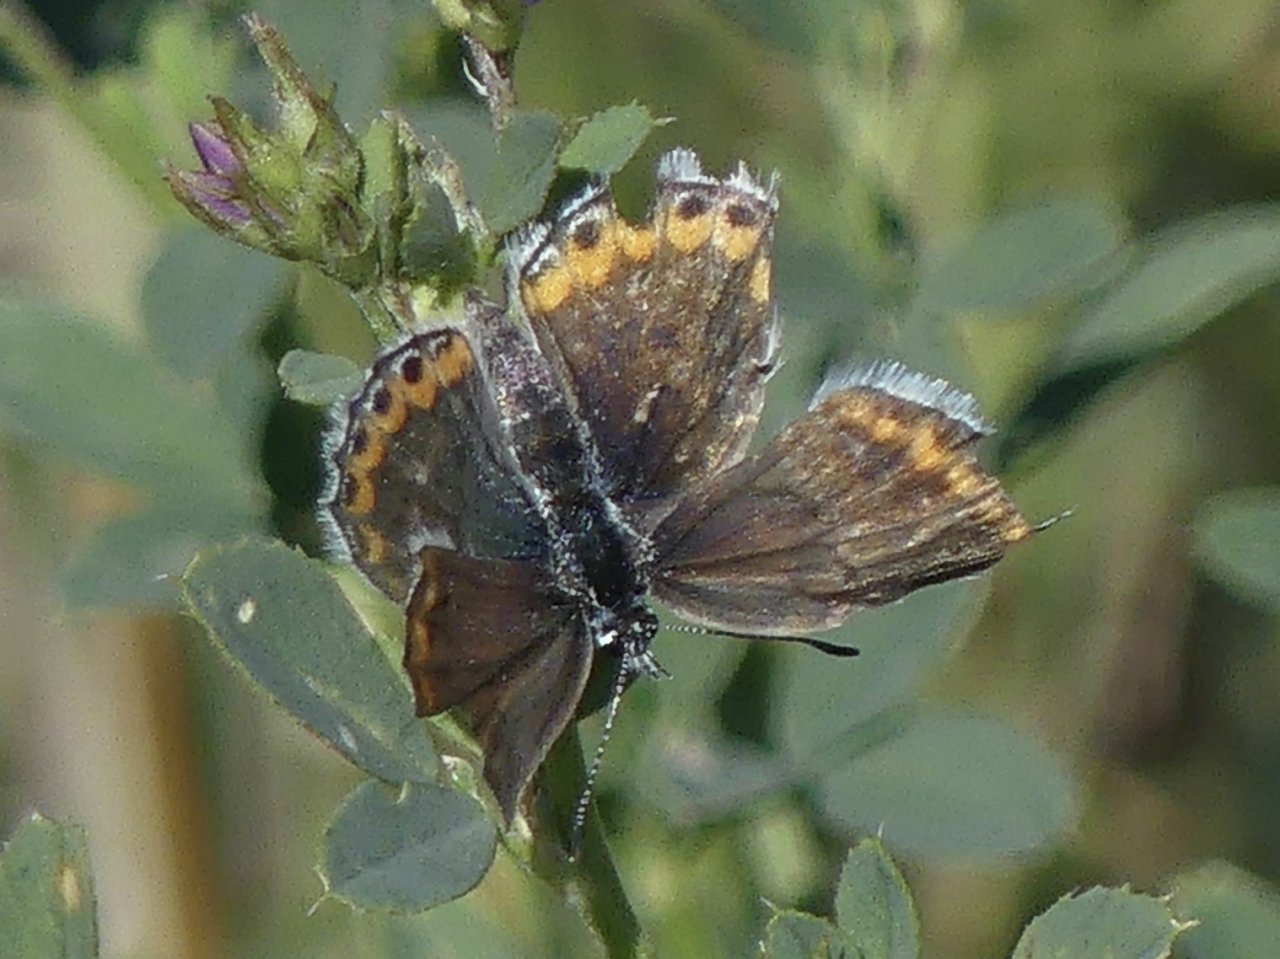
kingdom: Animalia
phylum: Arthropoda
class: Insecta
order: Lepidoptera
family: Lycaenidae
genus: Lycaeides
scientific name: Lycaeides melissa
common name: Melissa Blue
